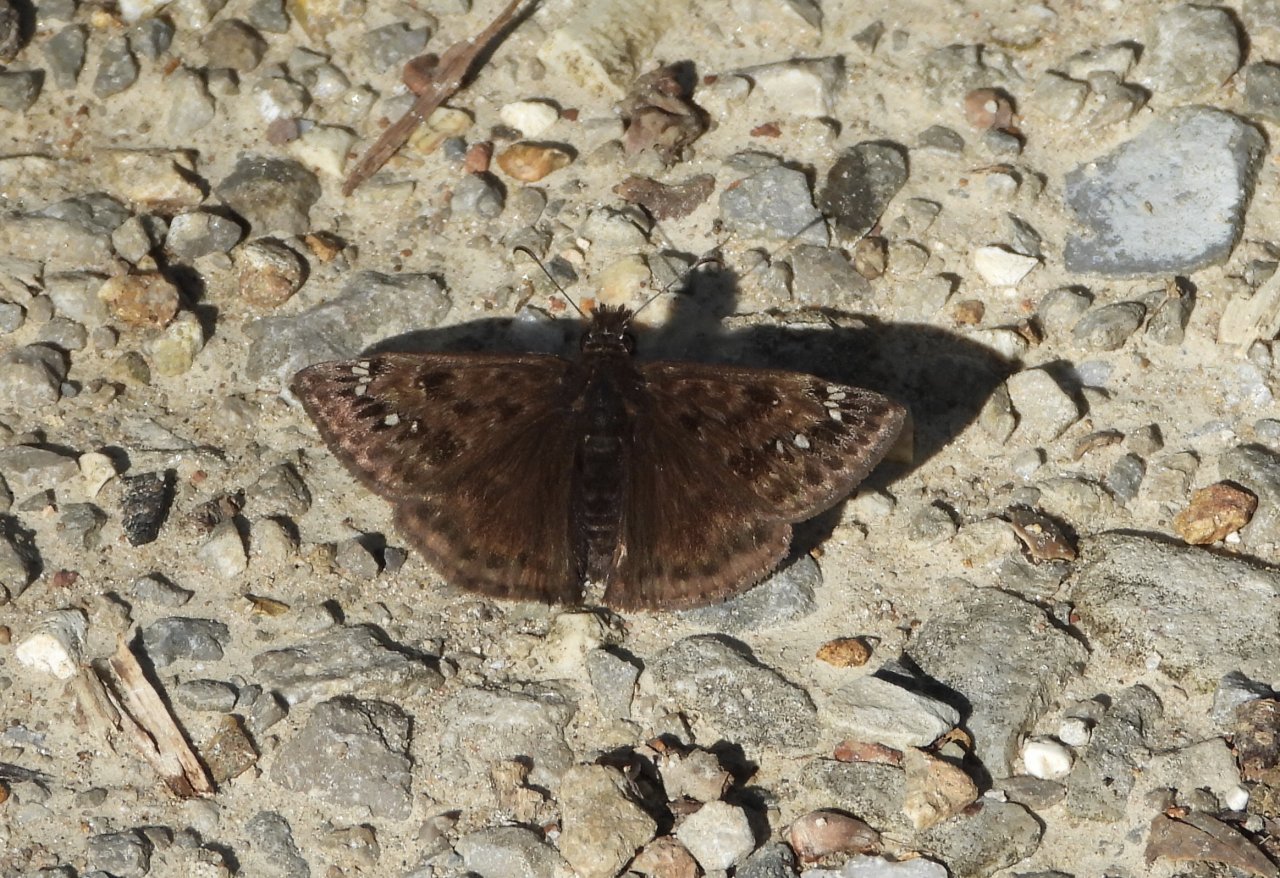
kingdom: Animalia
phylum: Arthropoda
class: Insecta
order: Lepidoptera
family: Hesperiidae
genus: Gesta
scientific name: Gesta
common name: Horace's Duskywing
